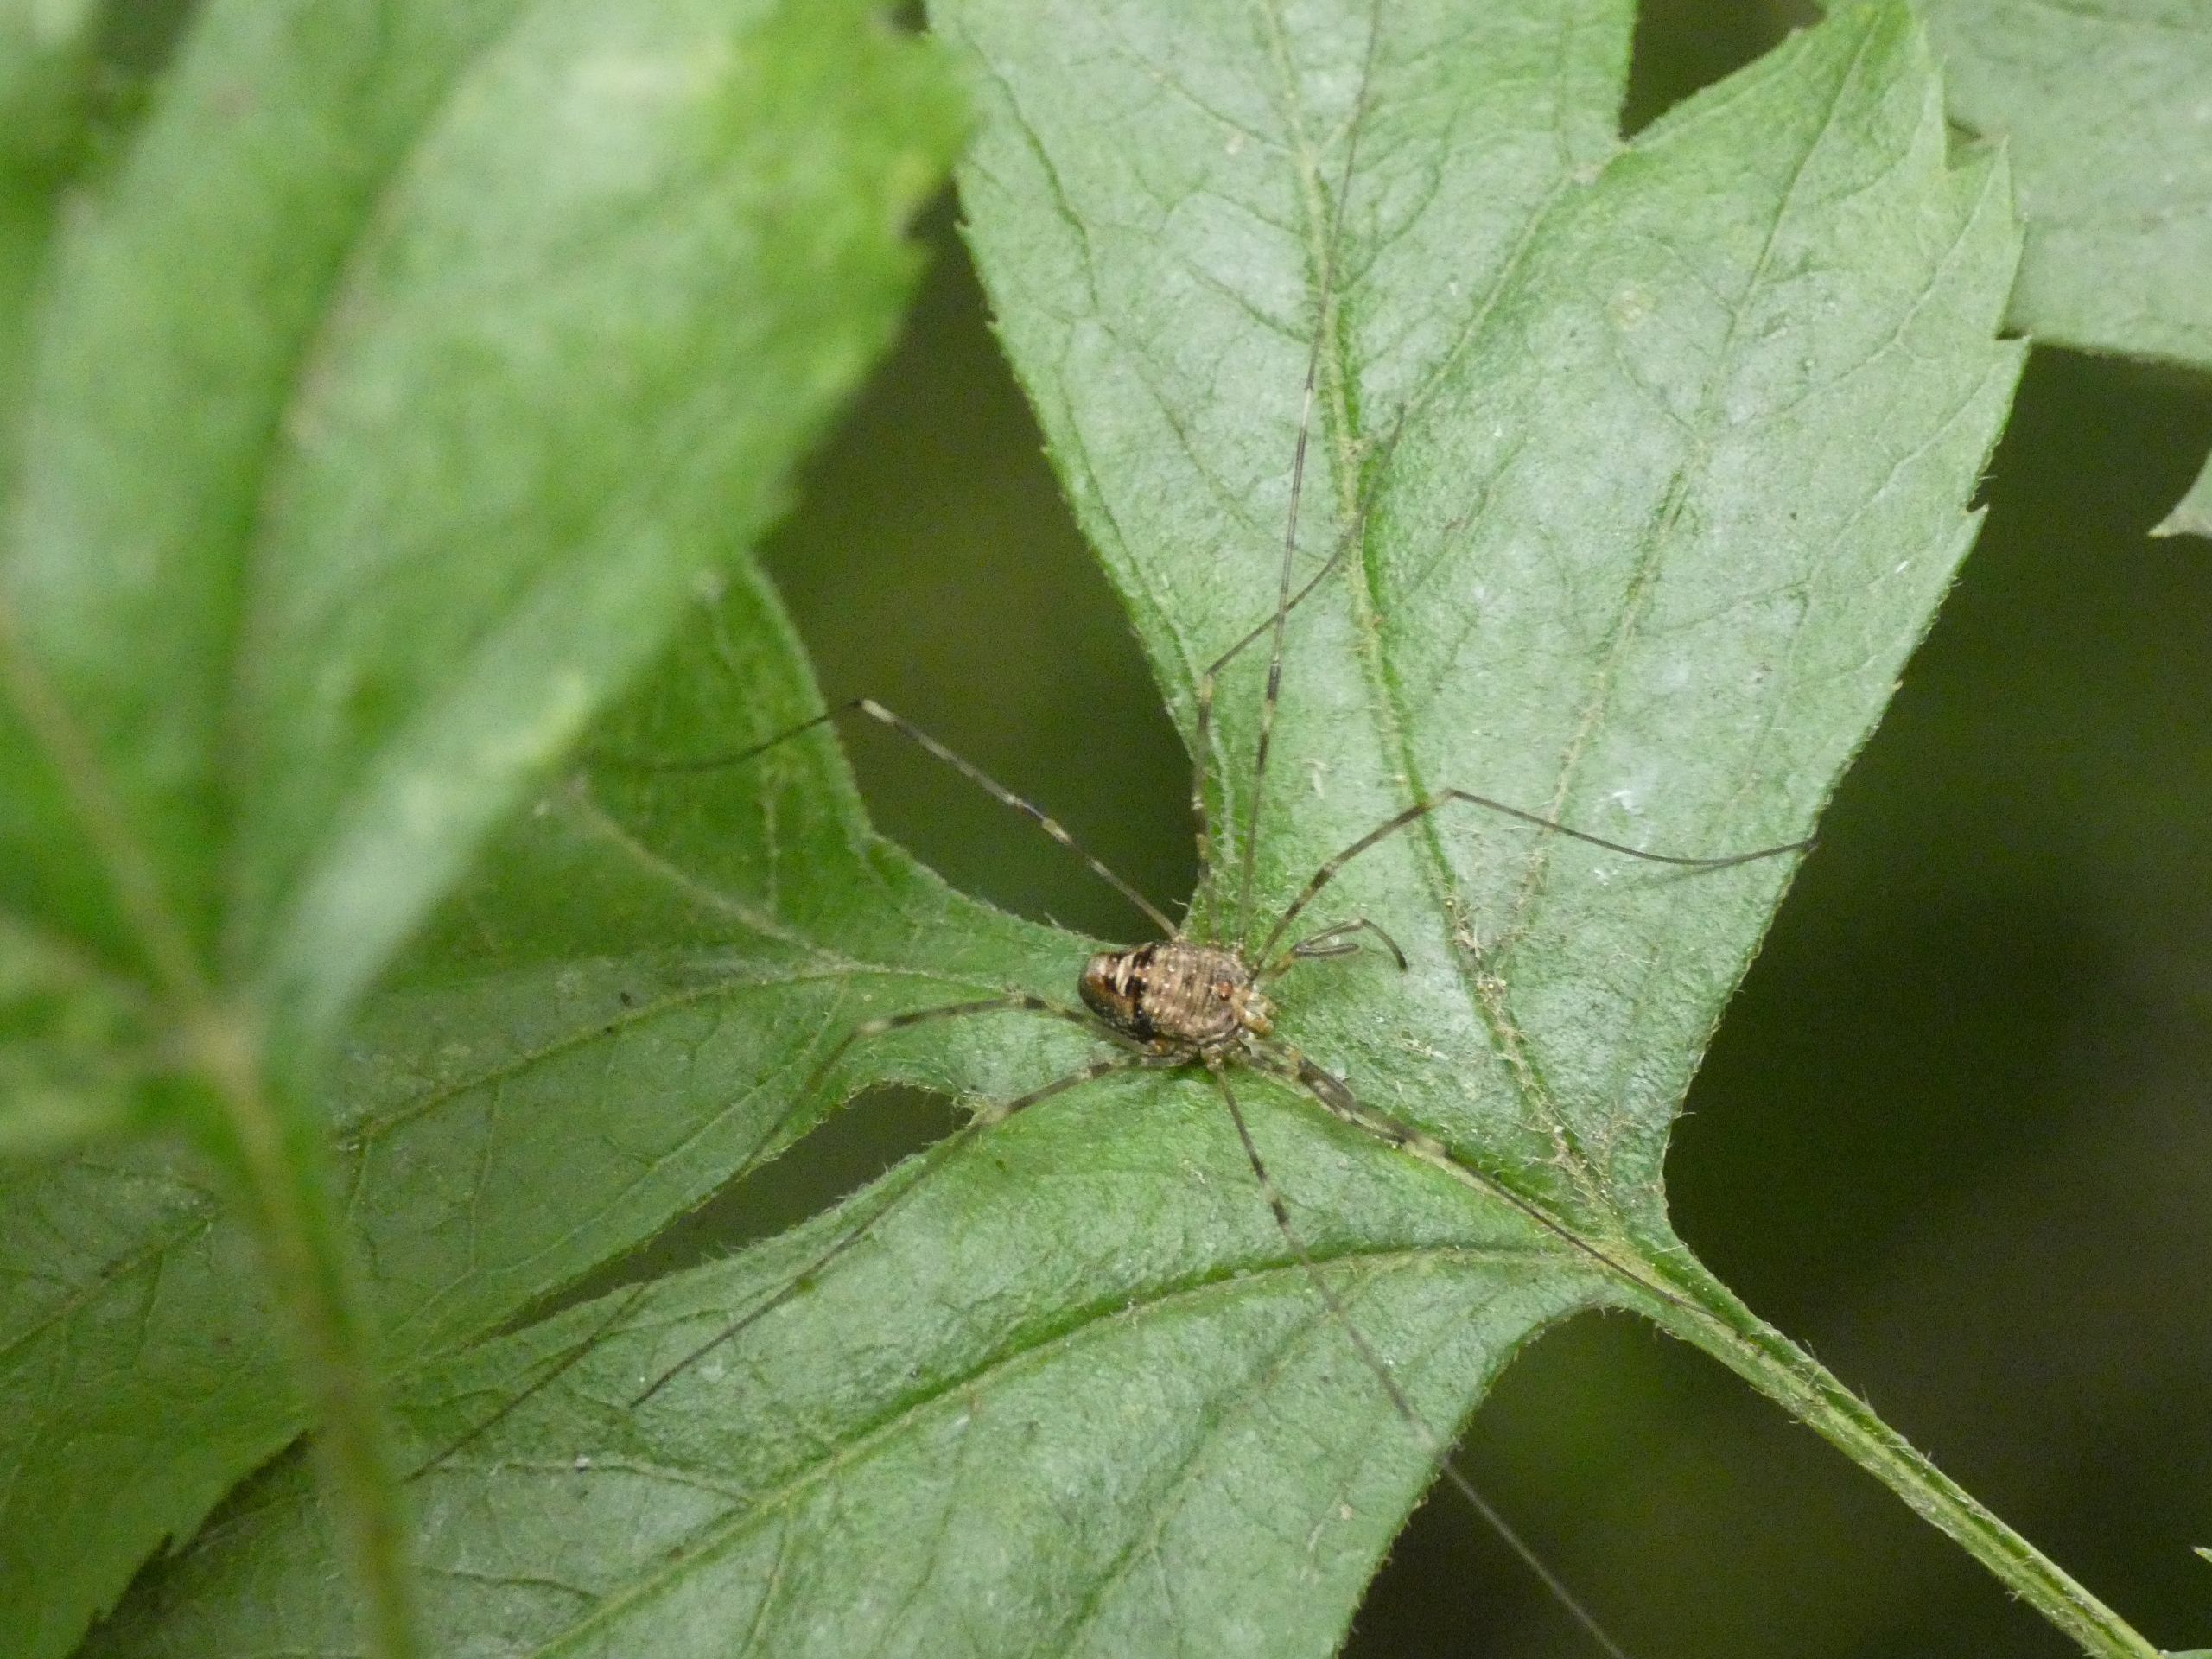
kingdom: Animalia
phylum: Arthropoda
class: Arachnida
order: Opiliones
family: Phalangiidae
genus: Dicranopalpus
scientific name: Dicranopalpus ramosus
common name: Gaffelmejer
